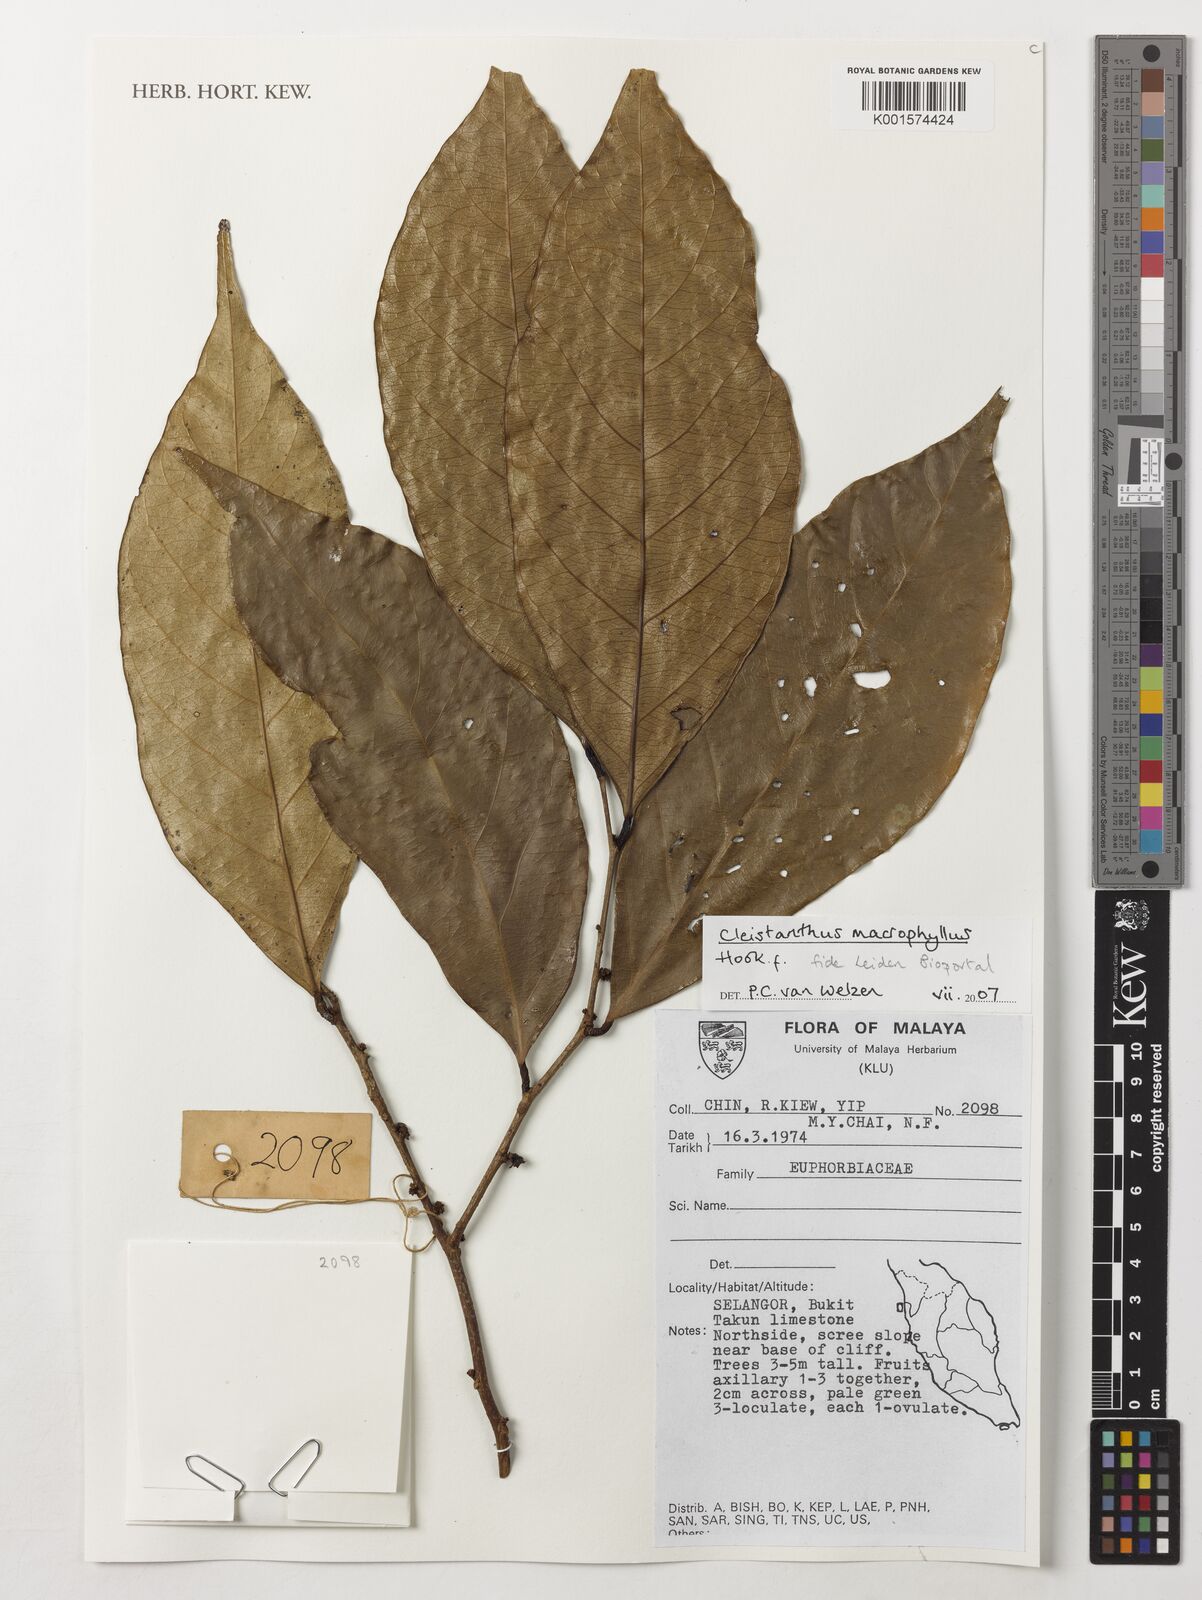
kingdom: Plantae
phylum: Tracheophyta
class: Magnoliopsida
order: Malpighiales
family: Phyllanthaceae
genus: Cleistanthus
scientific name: Cleistanthus macrophyllus
